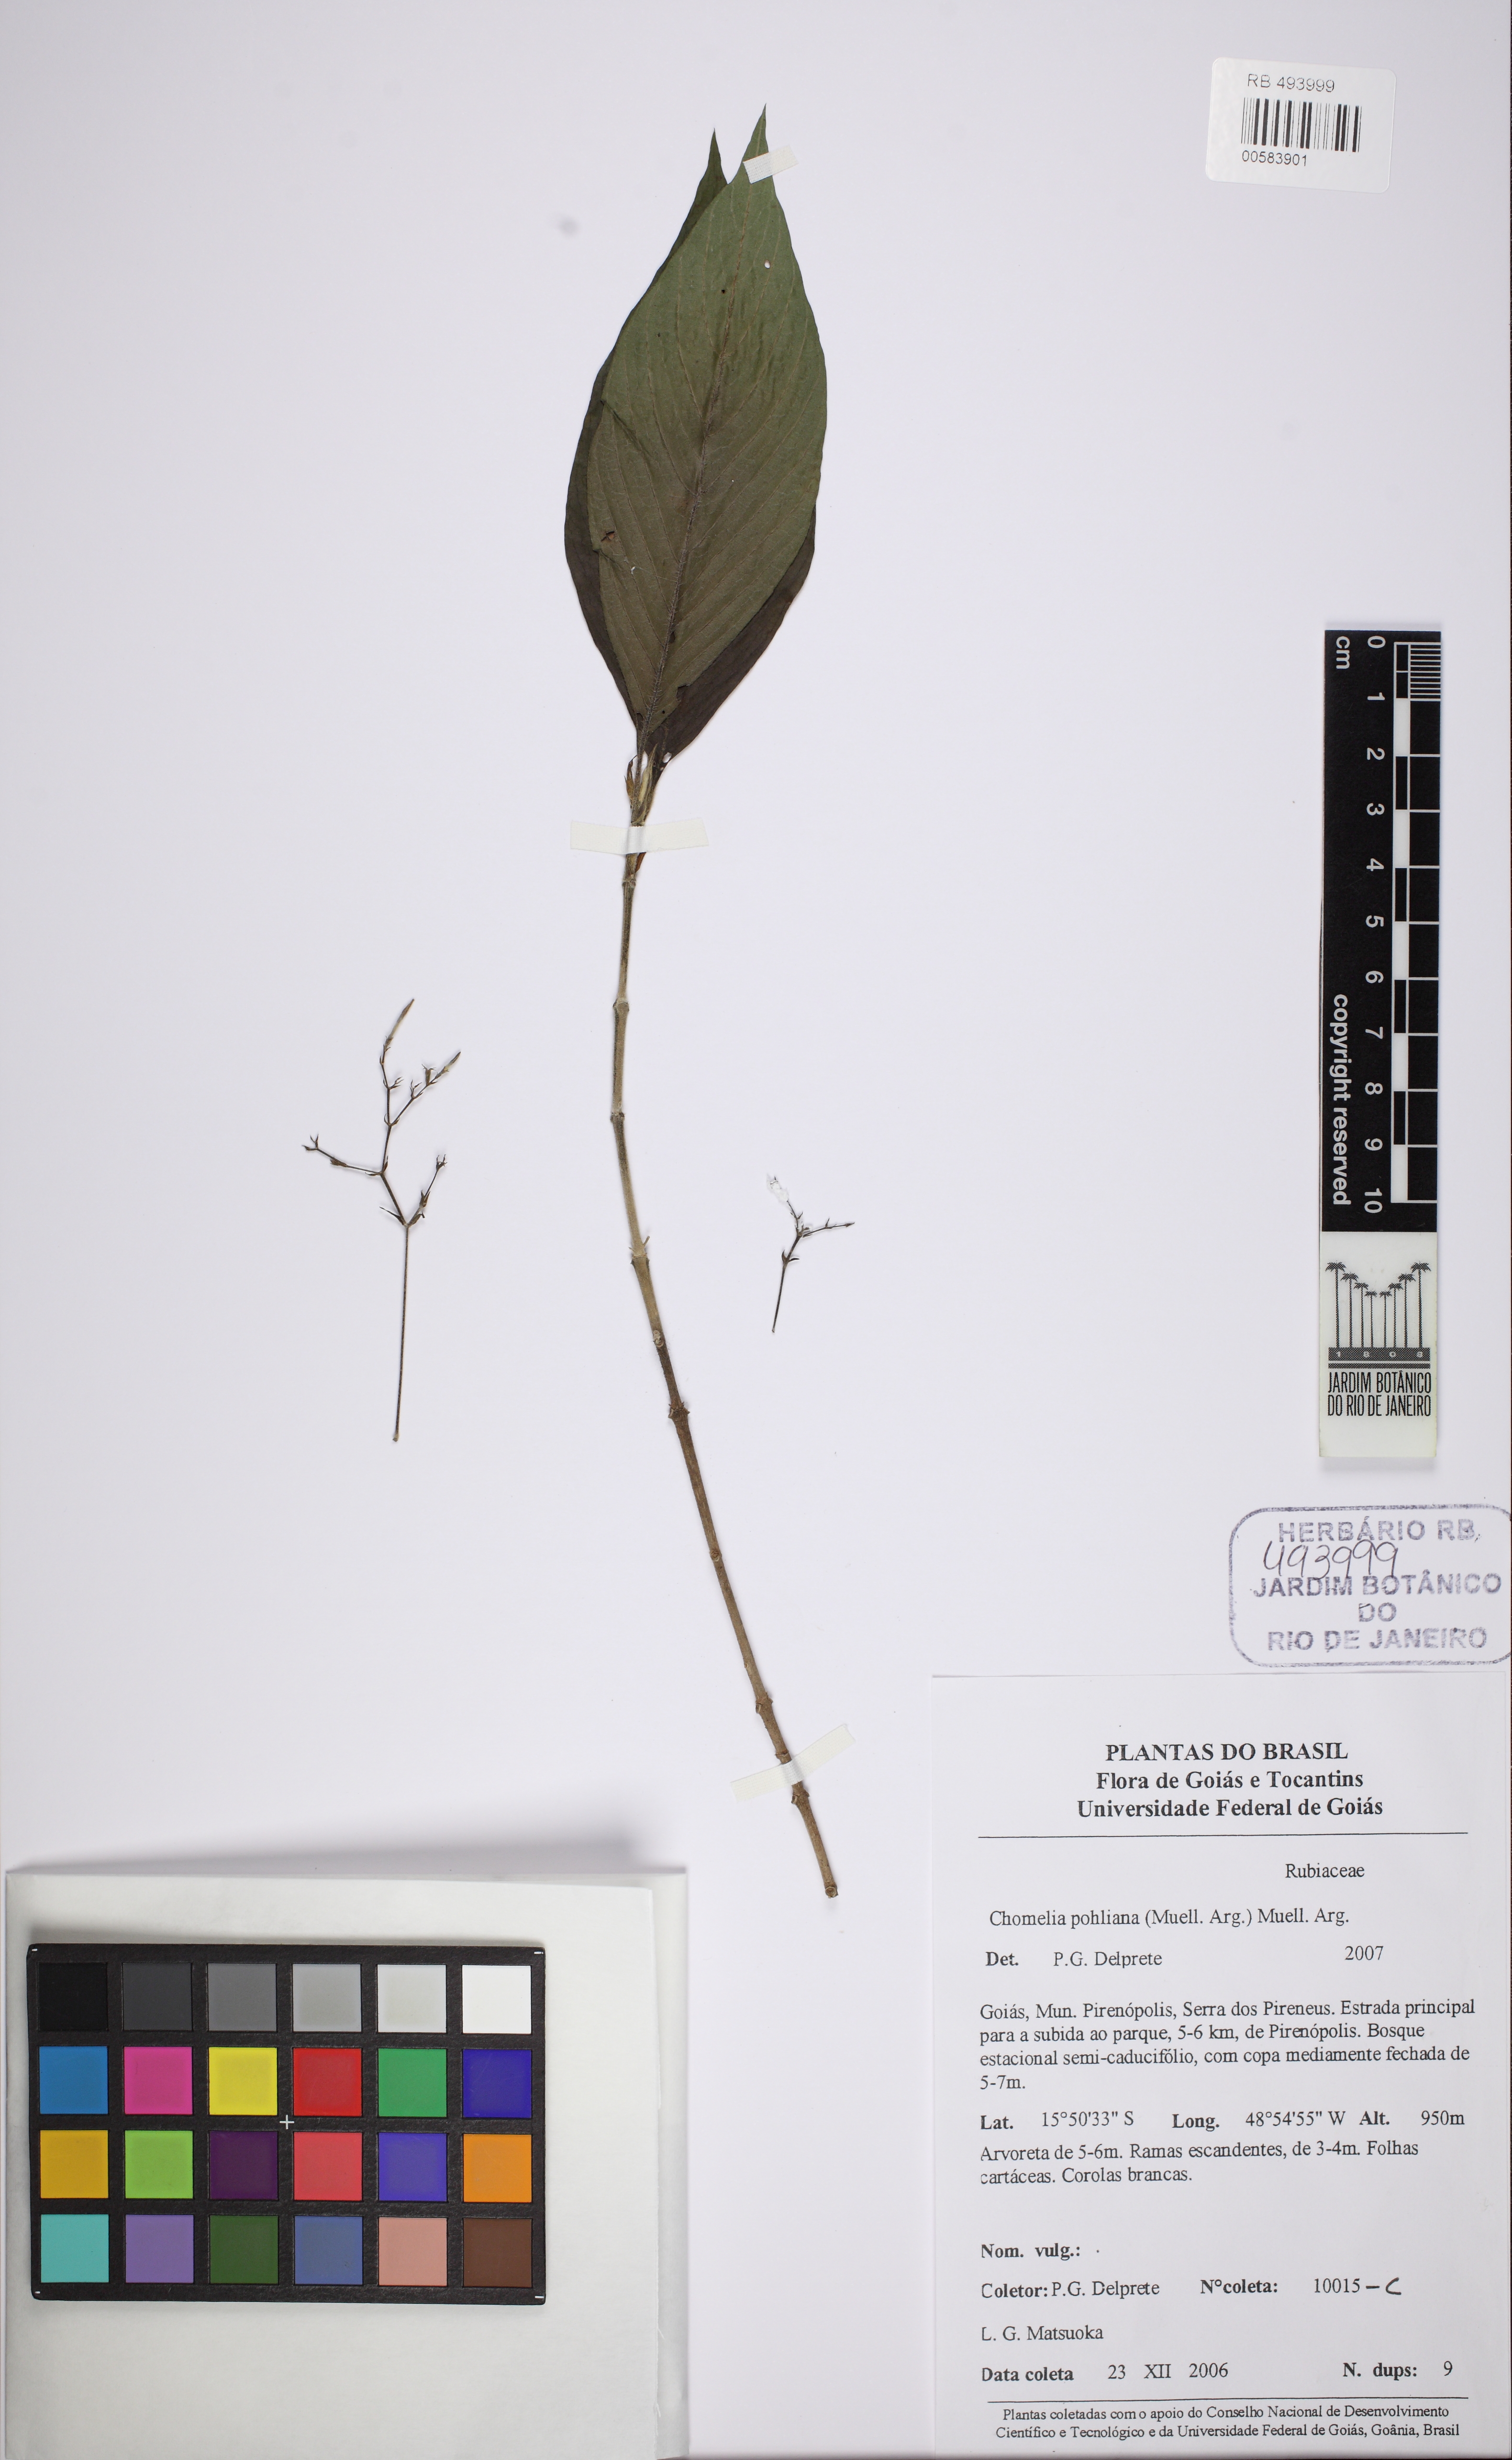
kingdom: Plantae
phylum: Tracheophyta
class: Magnoliopsida
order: Gentianales
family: Rubiaceae
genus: Chomelia
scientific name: Chomelia pohliana
